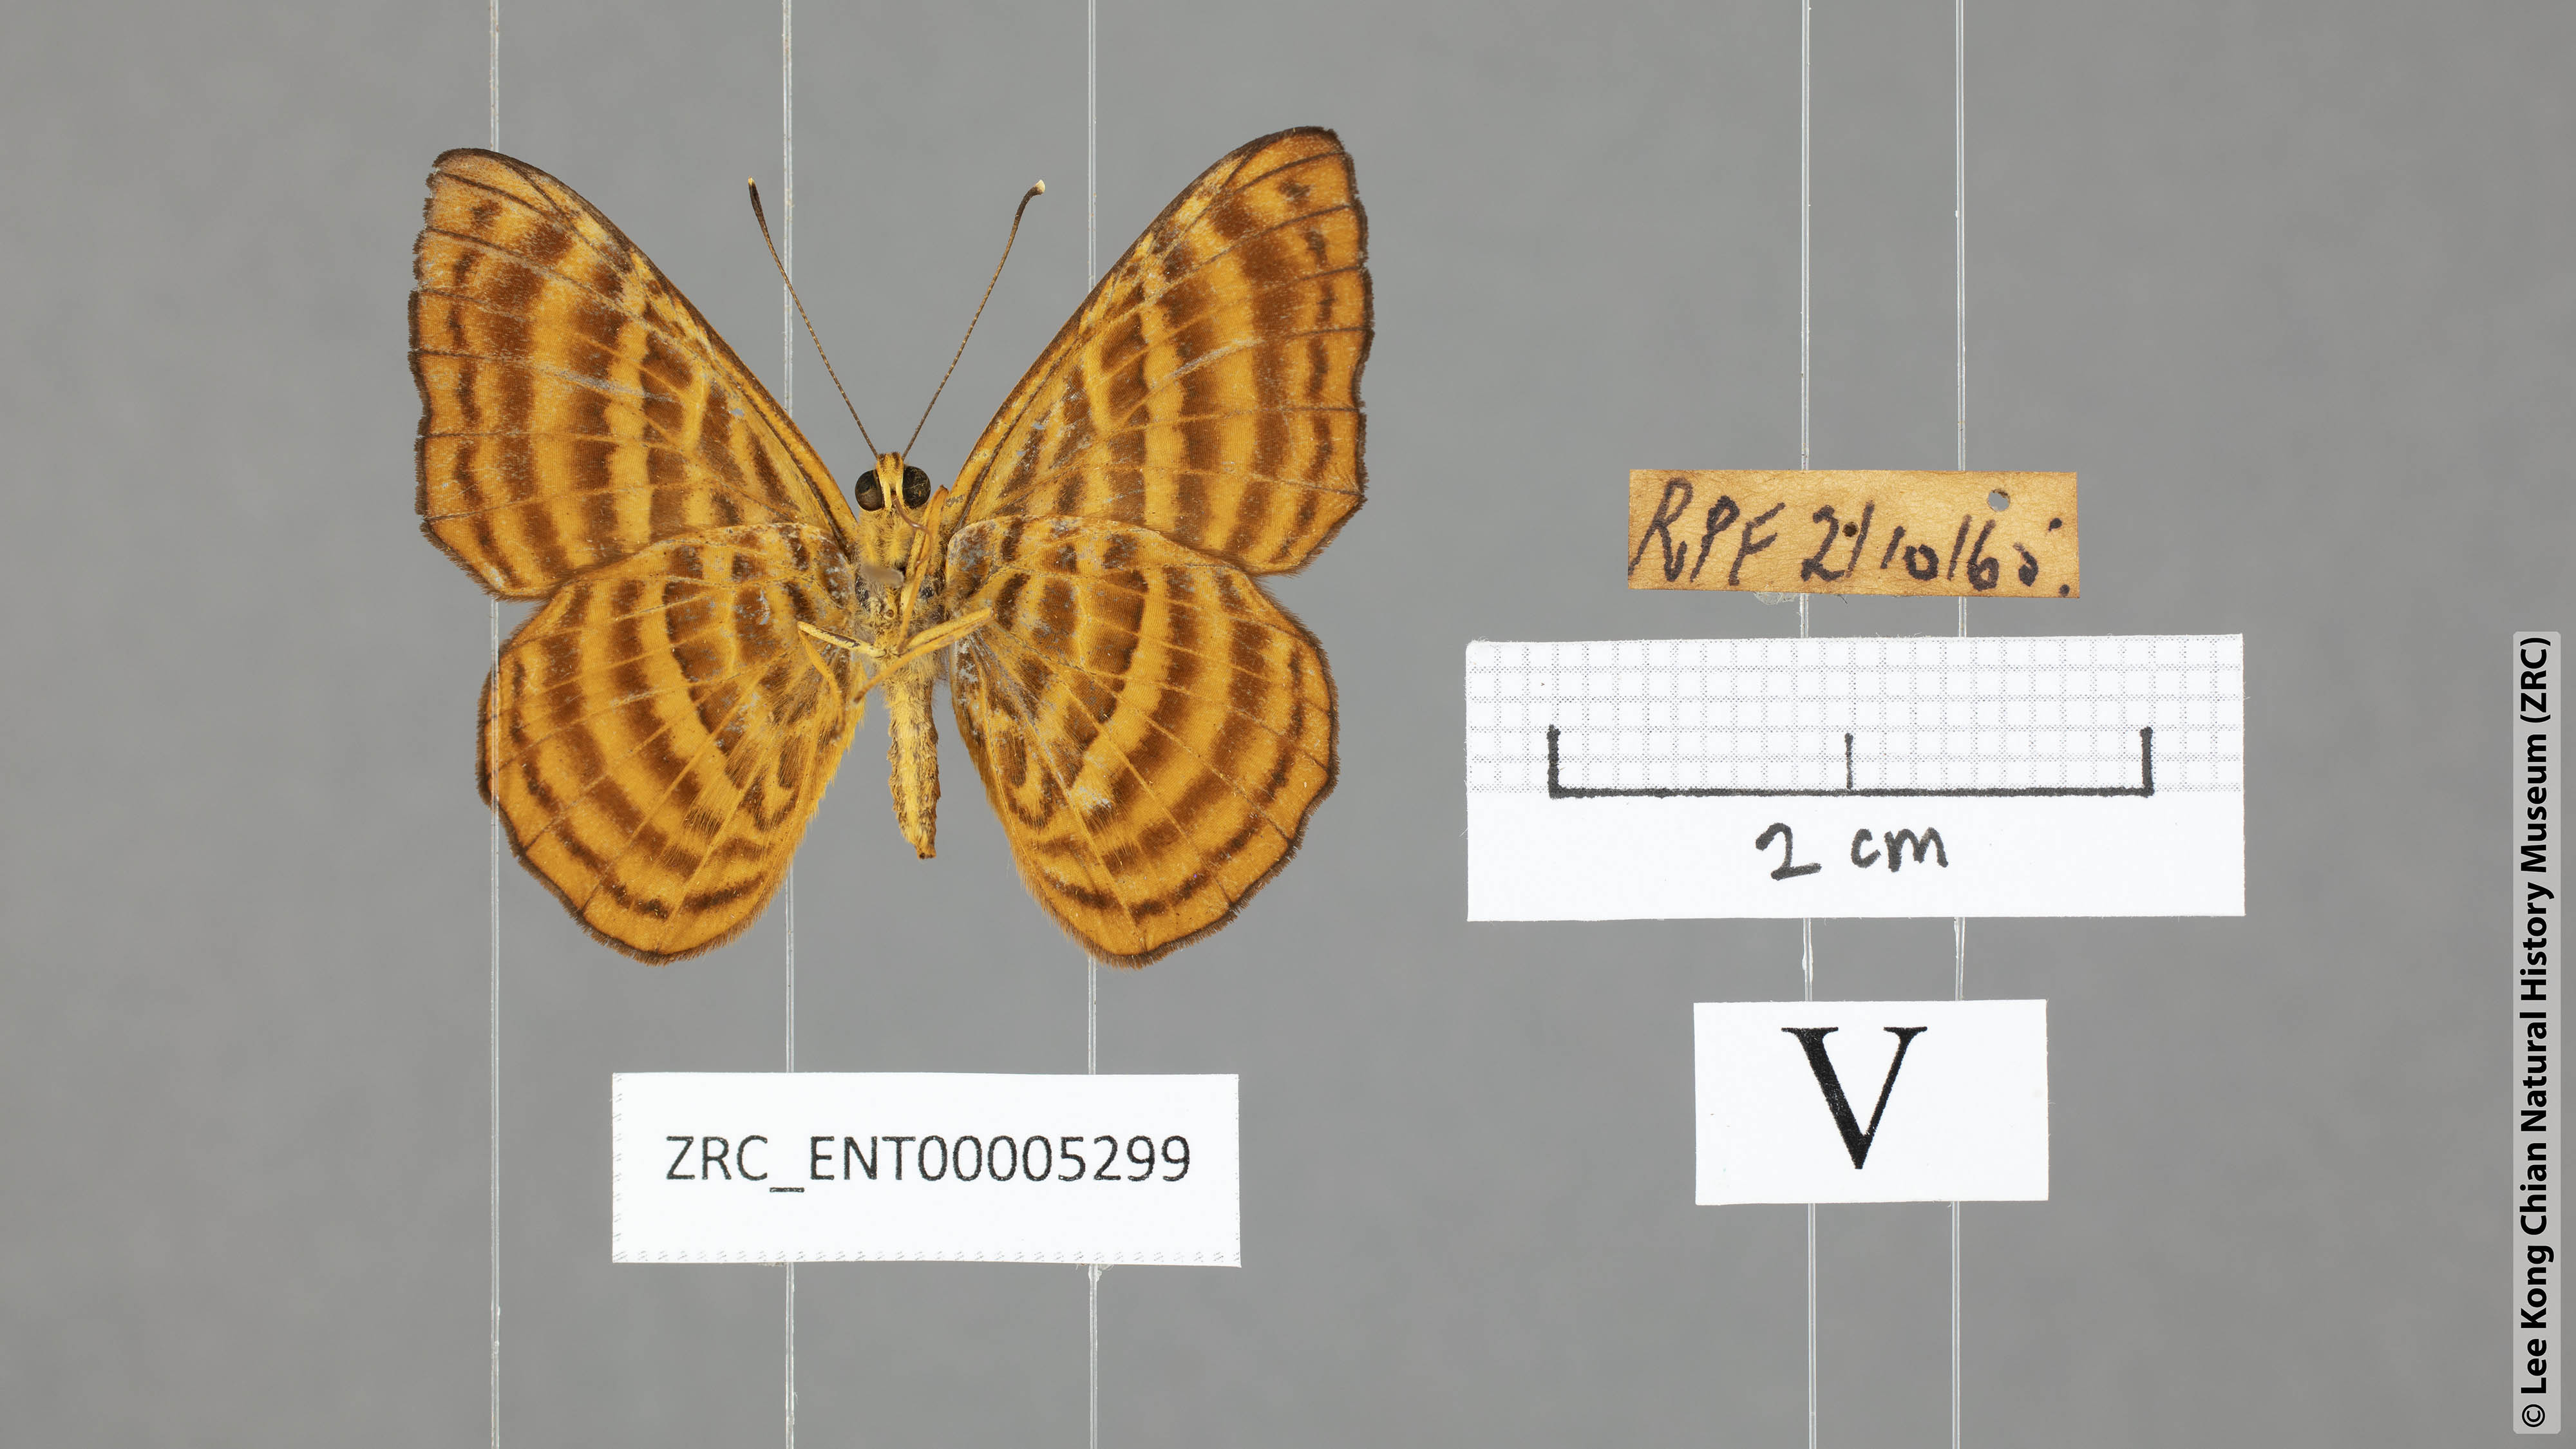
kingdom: Animalia
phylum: Arthropoda
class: Insecta
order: Lepidoptera
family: Riodinidae
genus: Zemeros
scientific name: Zemeros emesoides
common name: Malay punchinello
